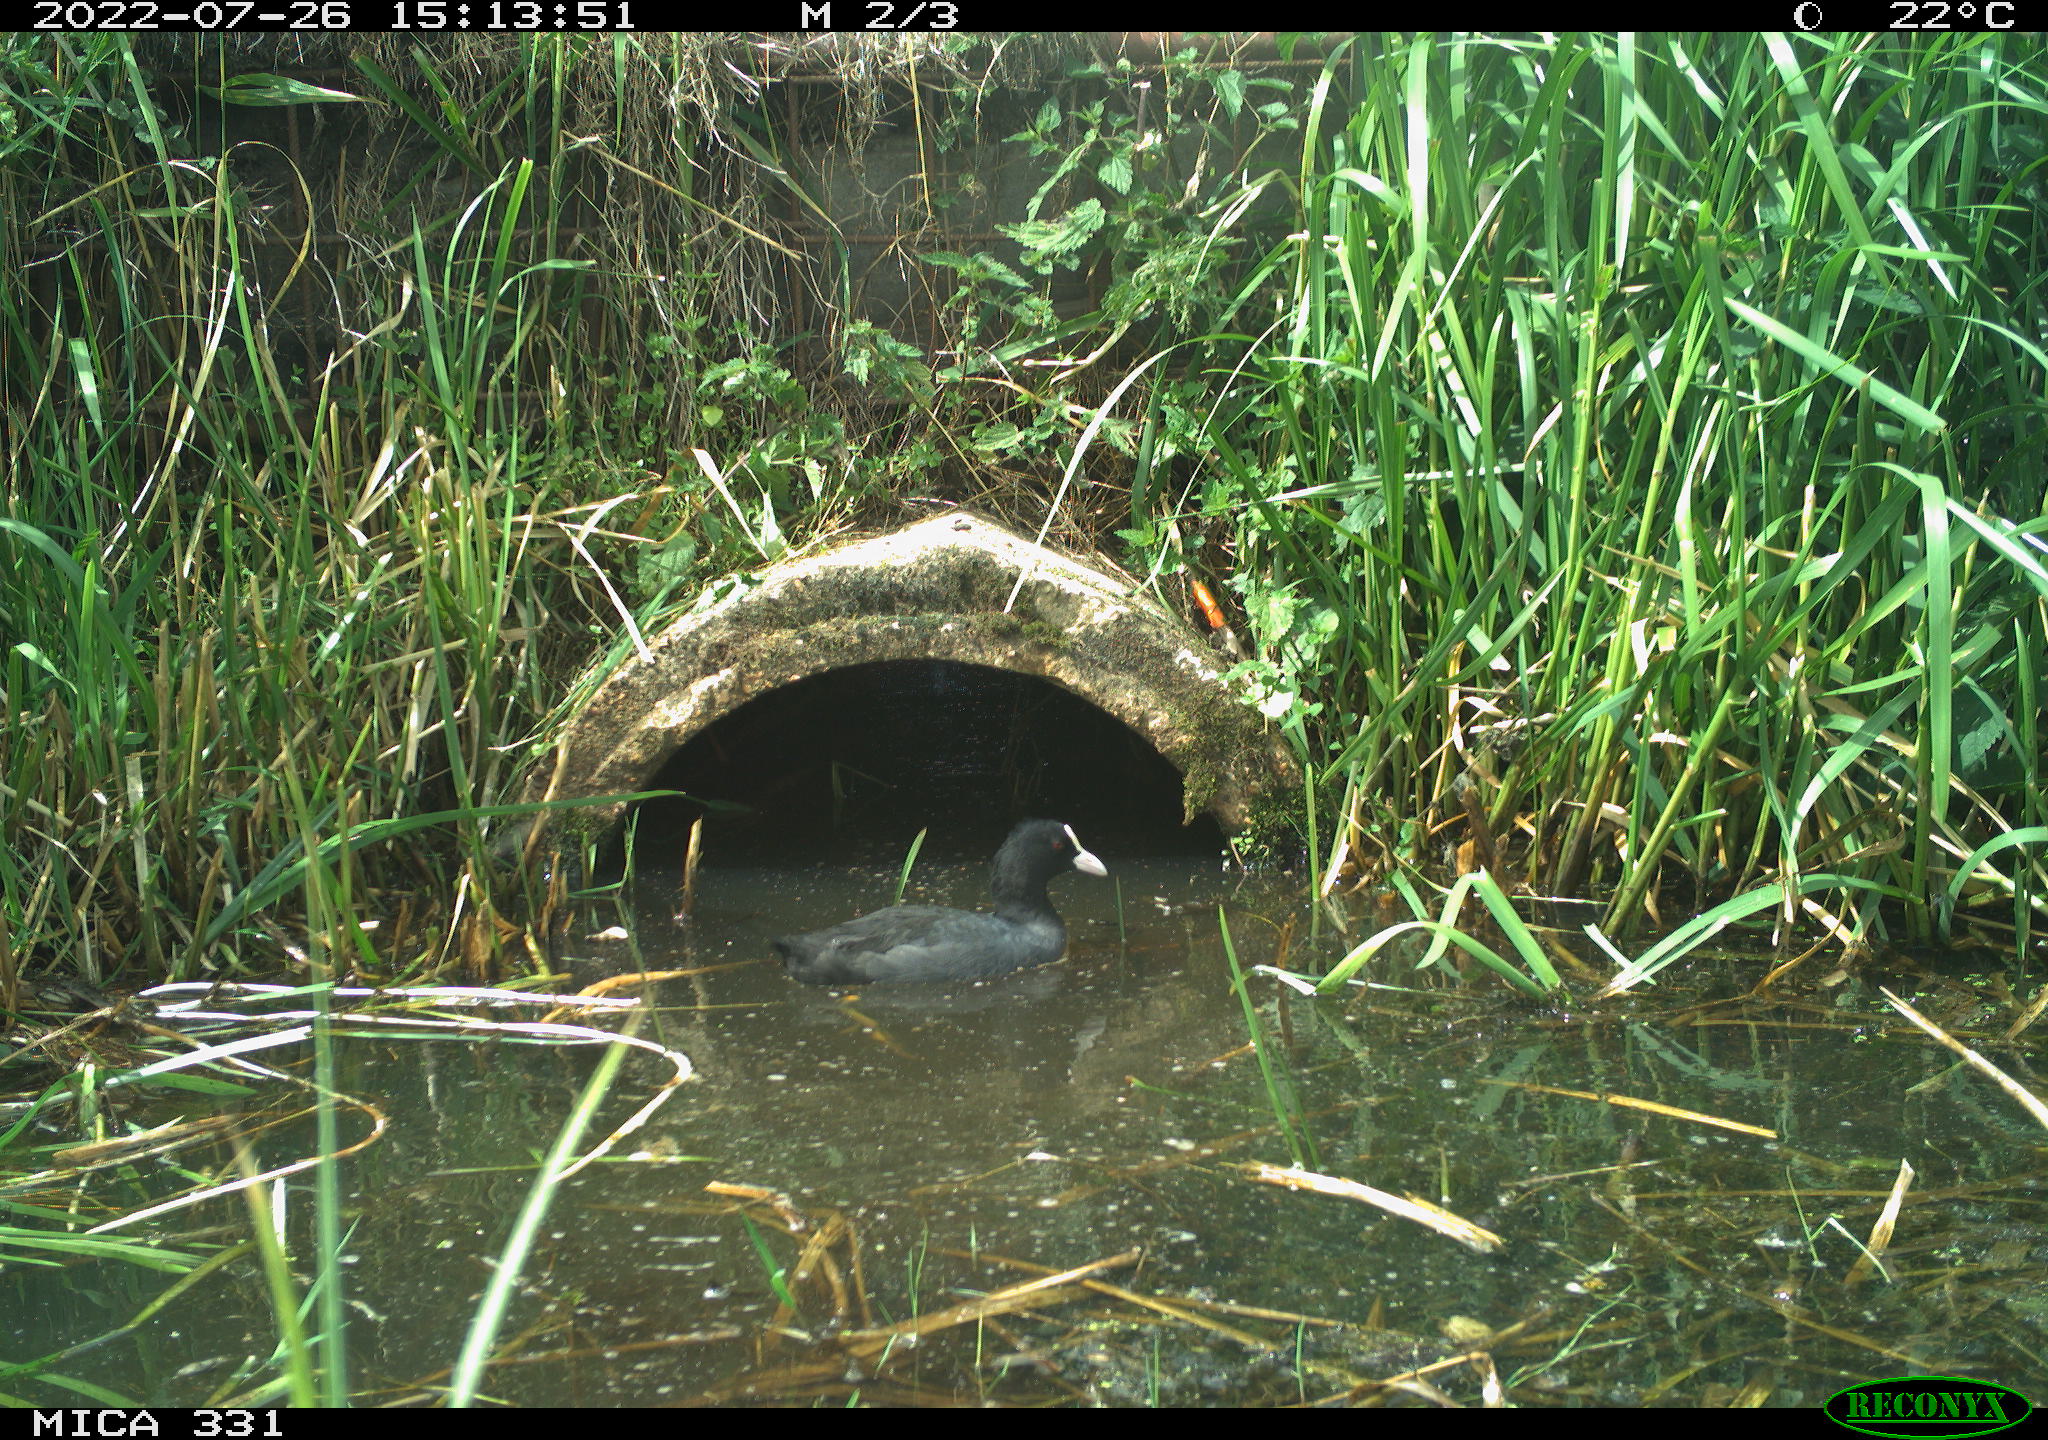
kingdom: Animalia
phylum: Chordata
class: Aves
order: Gruiformes
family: Rallidae
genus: Fulica
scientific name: Fulica atra
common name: Eurasian coot
